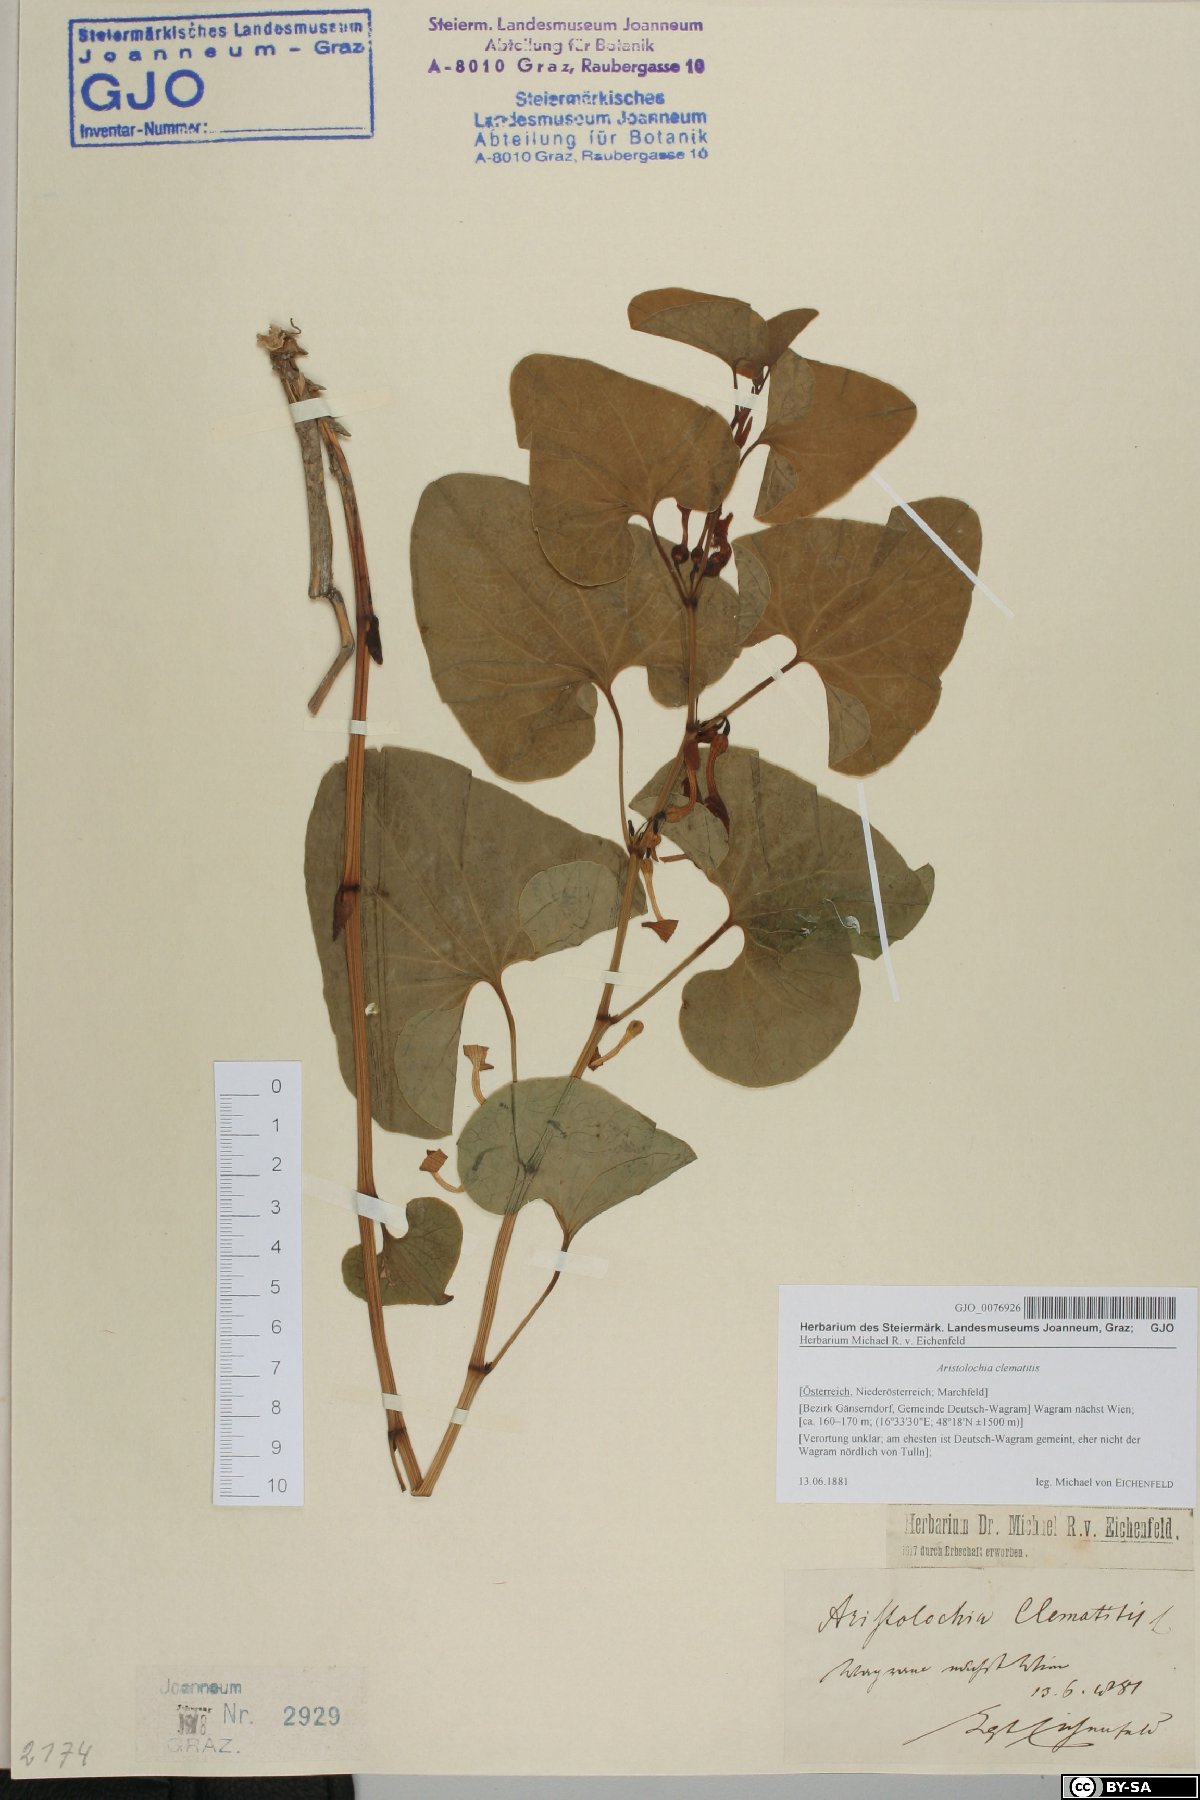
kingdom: Plantae
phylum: Tracheophyta
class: Magnoliopsida
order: Piperales
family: Aristolochiaceae
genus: Aristolochia
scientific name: Aristolochia clematitis
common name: Birthwort
